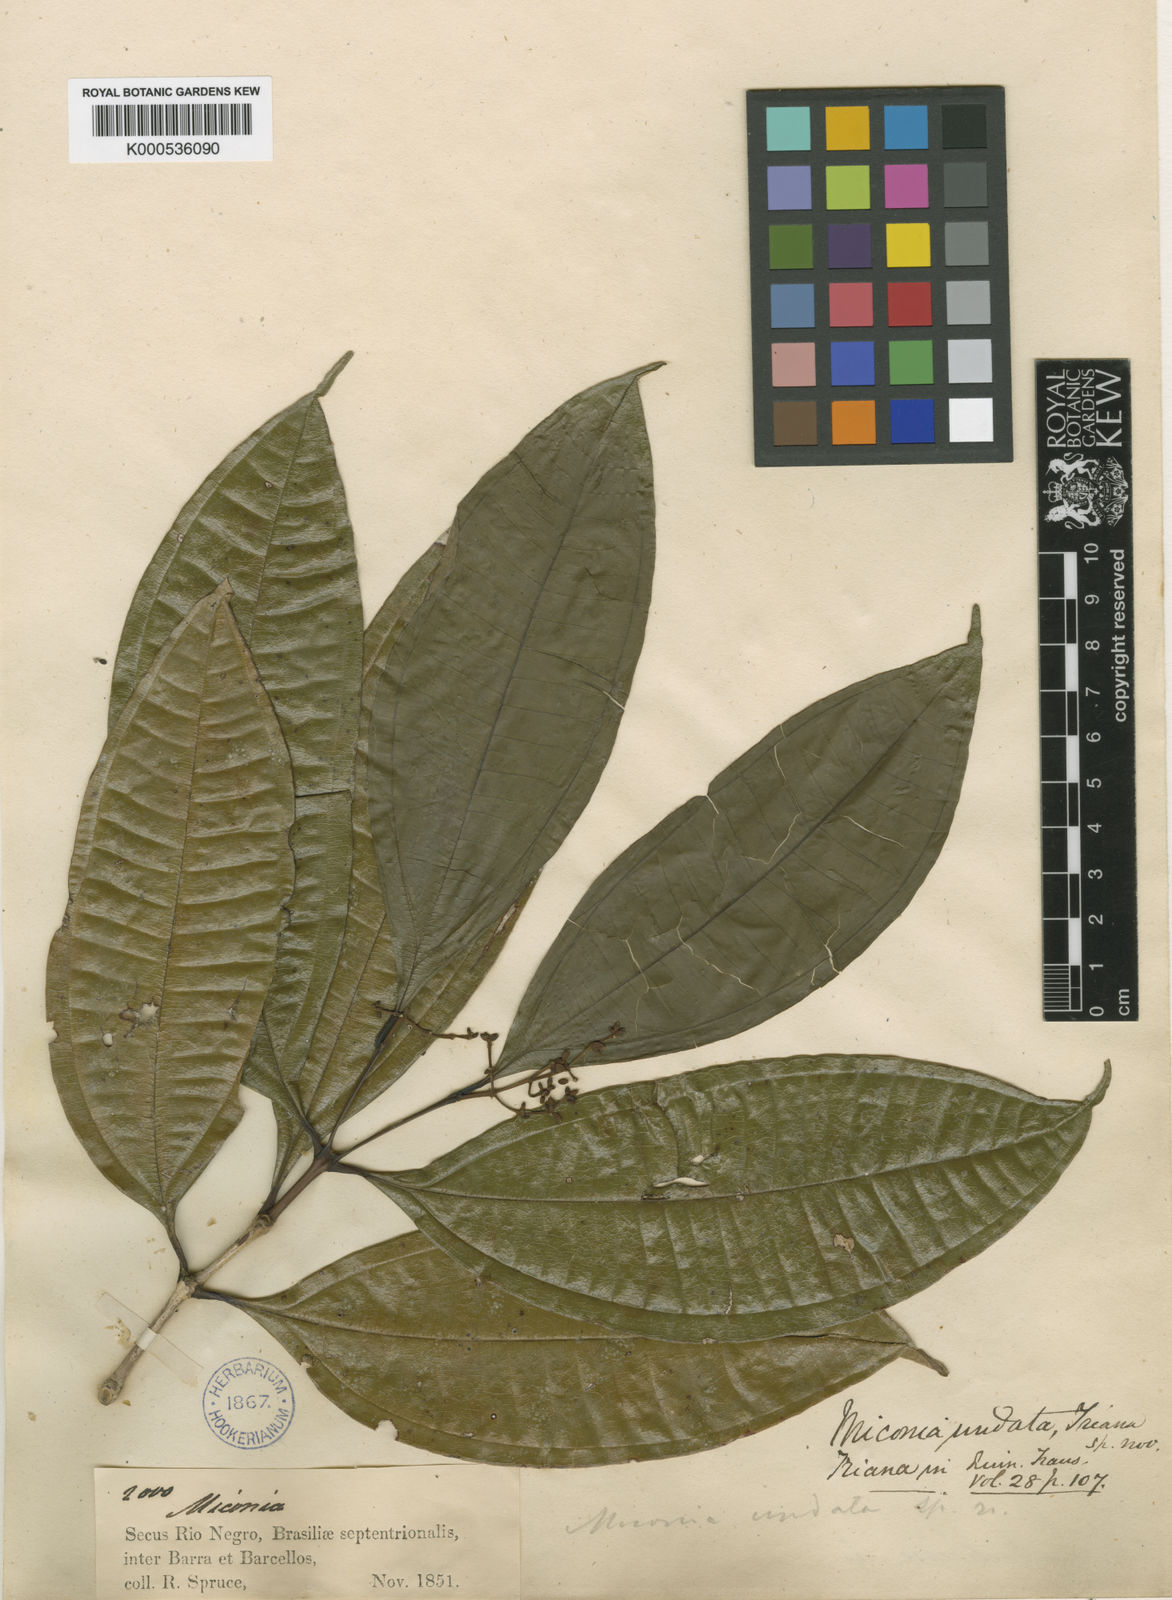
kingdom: Plantae
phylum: Tracheophyta
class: Magnoliopsida
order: Myrtales
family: Melastomataceae
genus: Miconia
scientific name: Miconia undata
